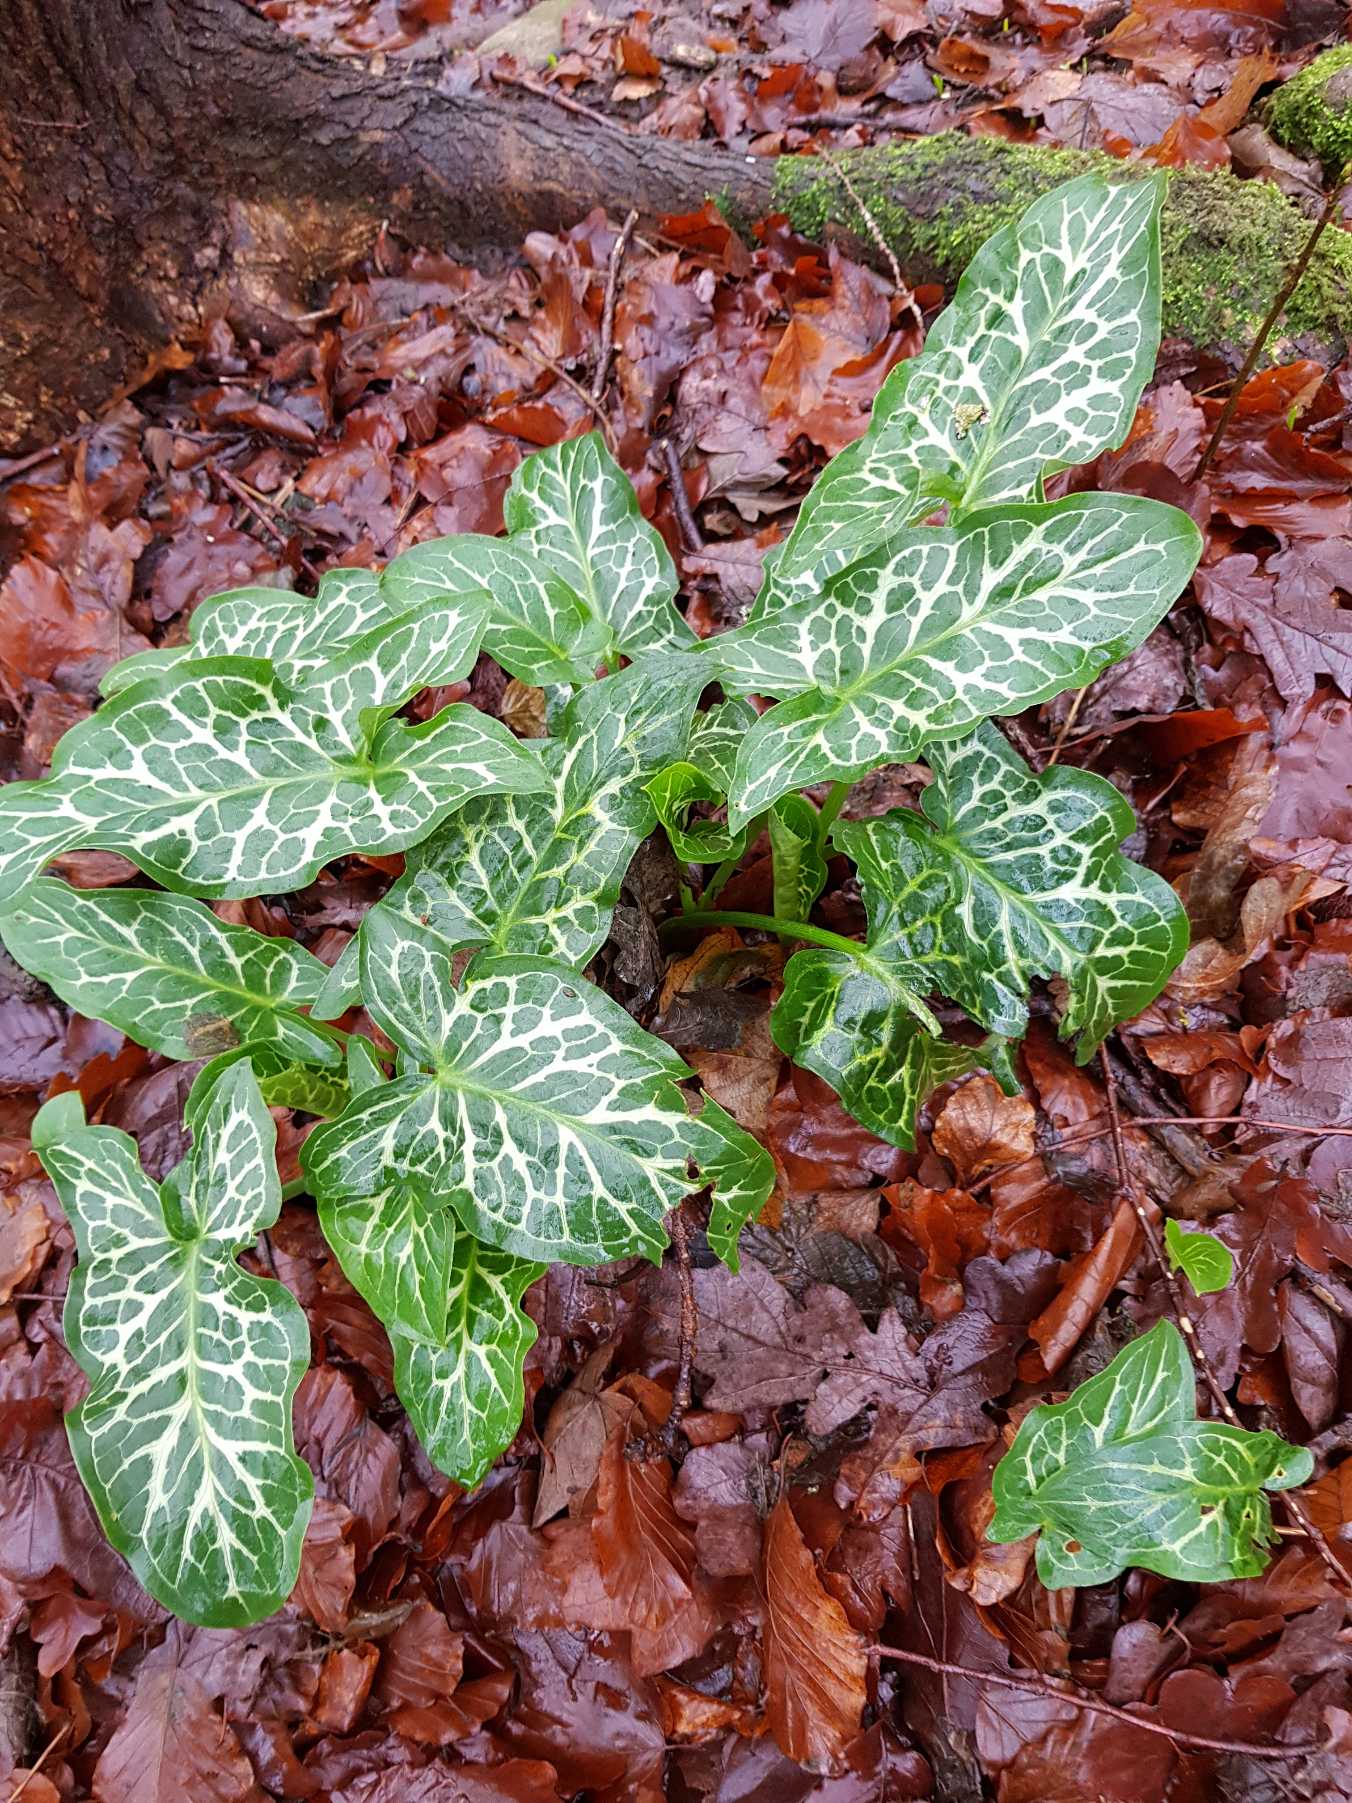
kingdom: Plantae
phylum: Tracheophyta
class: Liliopsida
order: Alismatales
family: Araceae
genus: Arum
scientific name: Arum italicum
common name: Italiensk arum
